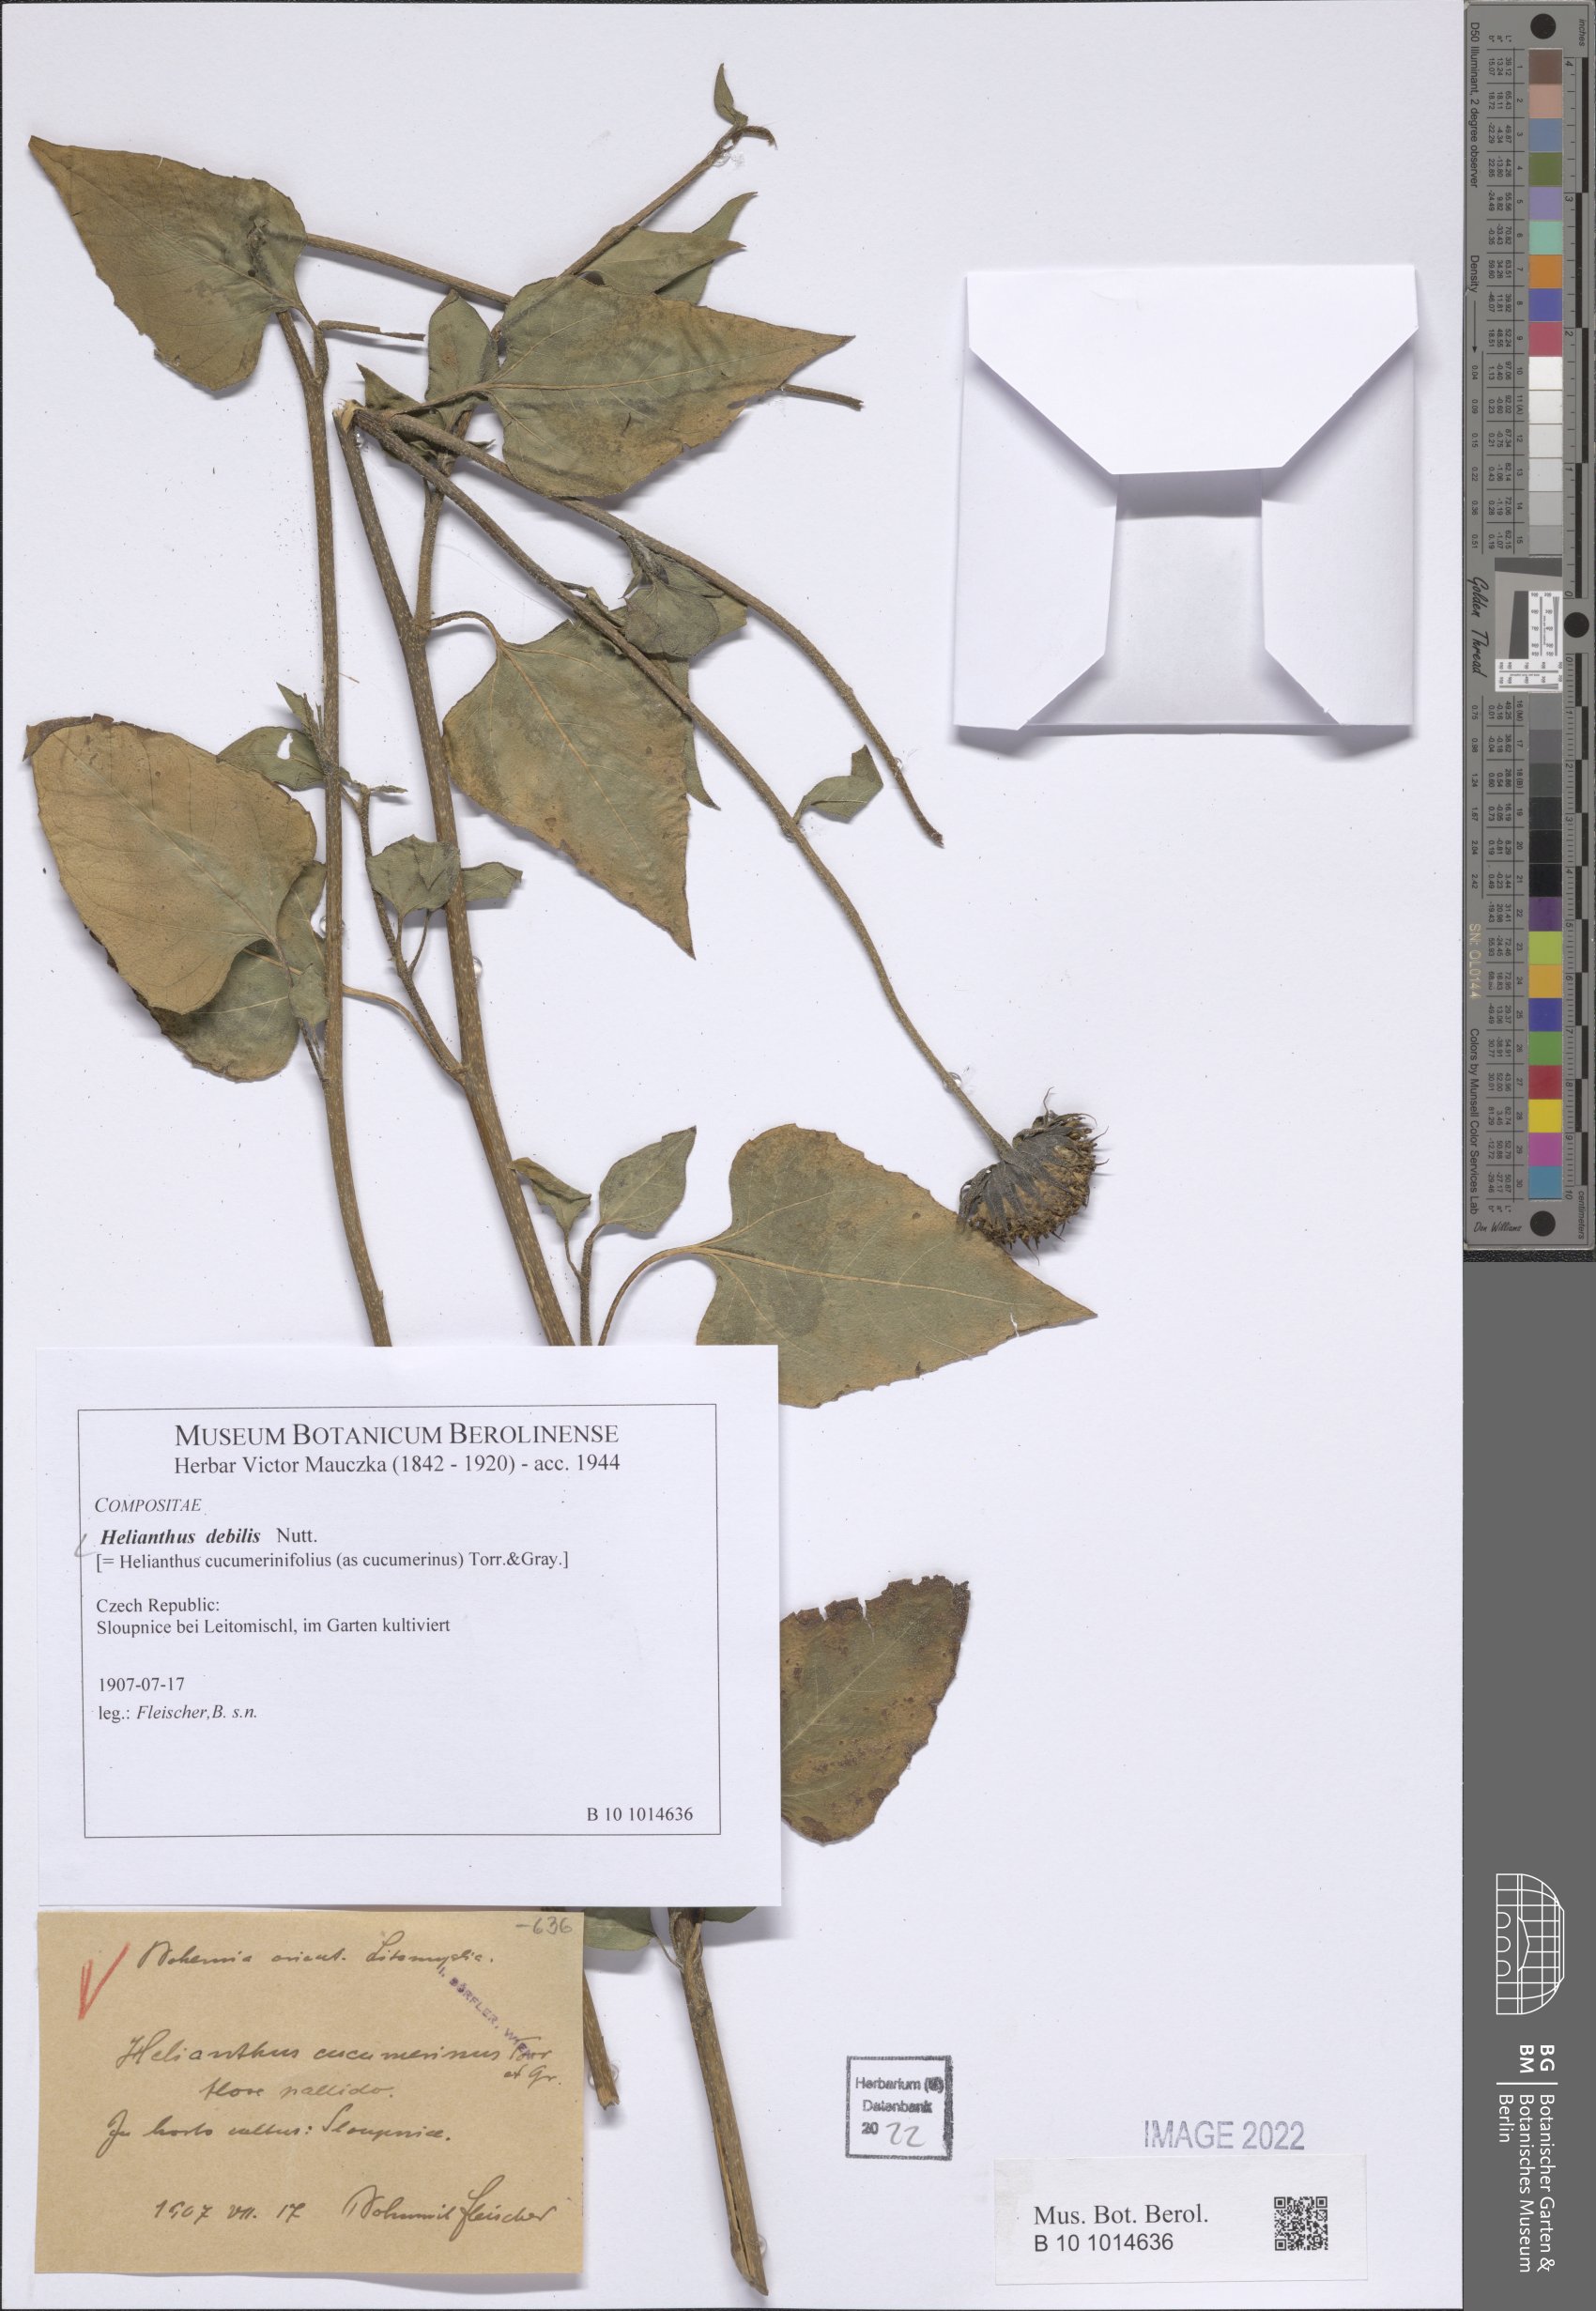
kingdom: Plantae
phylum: Tracheophyta
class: Magnoliopsida
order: Asterales
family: Asteraceae
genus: Helianthus
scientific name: Helianthus debilis
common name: Weak sunflower
